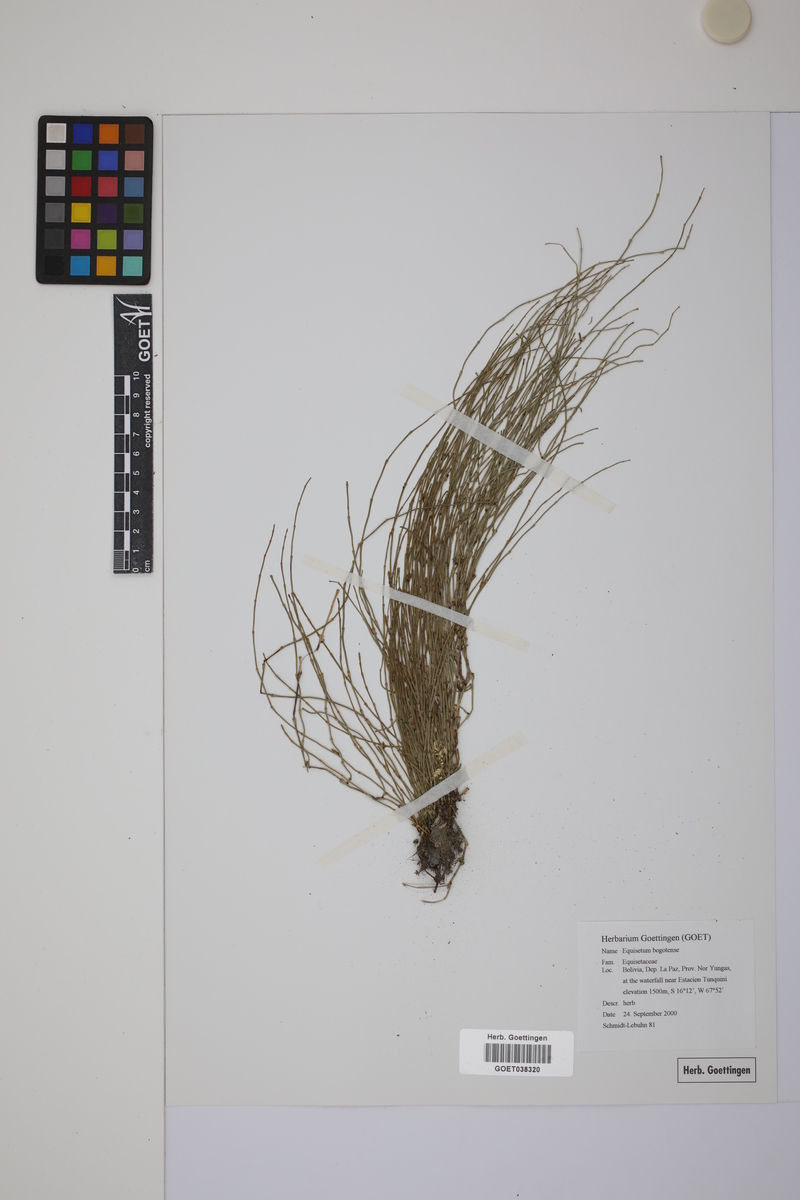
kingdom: Plantae
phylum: Tracheophyta
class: Polypodiopsida
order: Equisetales
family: Equisetaceae
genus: Equisetum
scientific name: Equisetum bogotense
